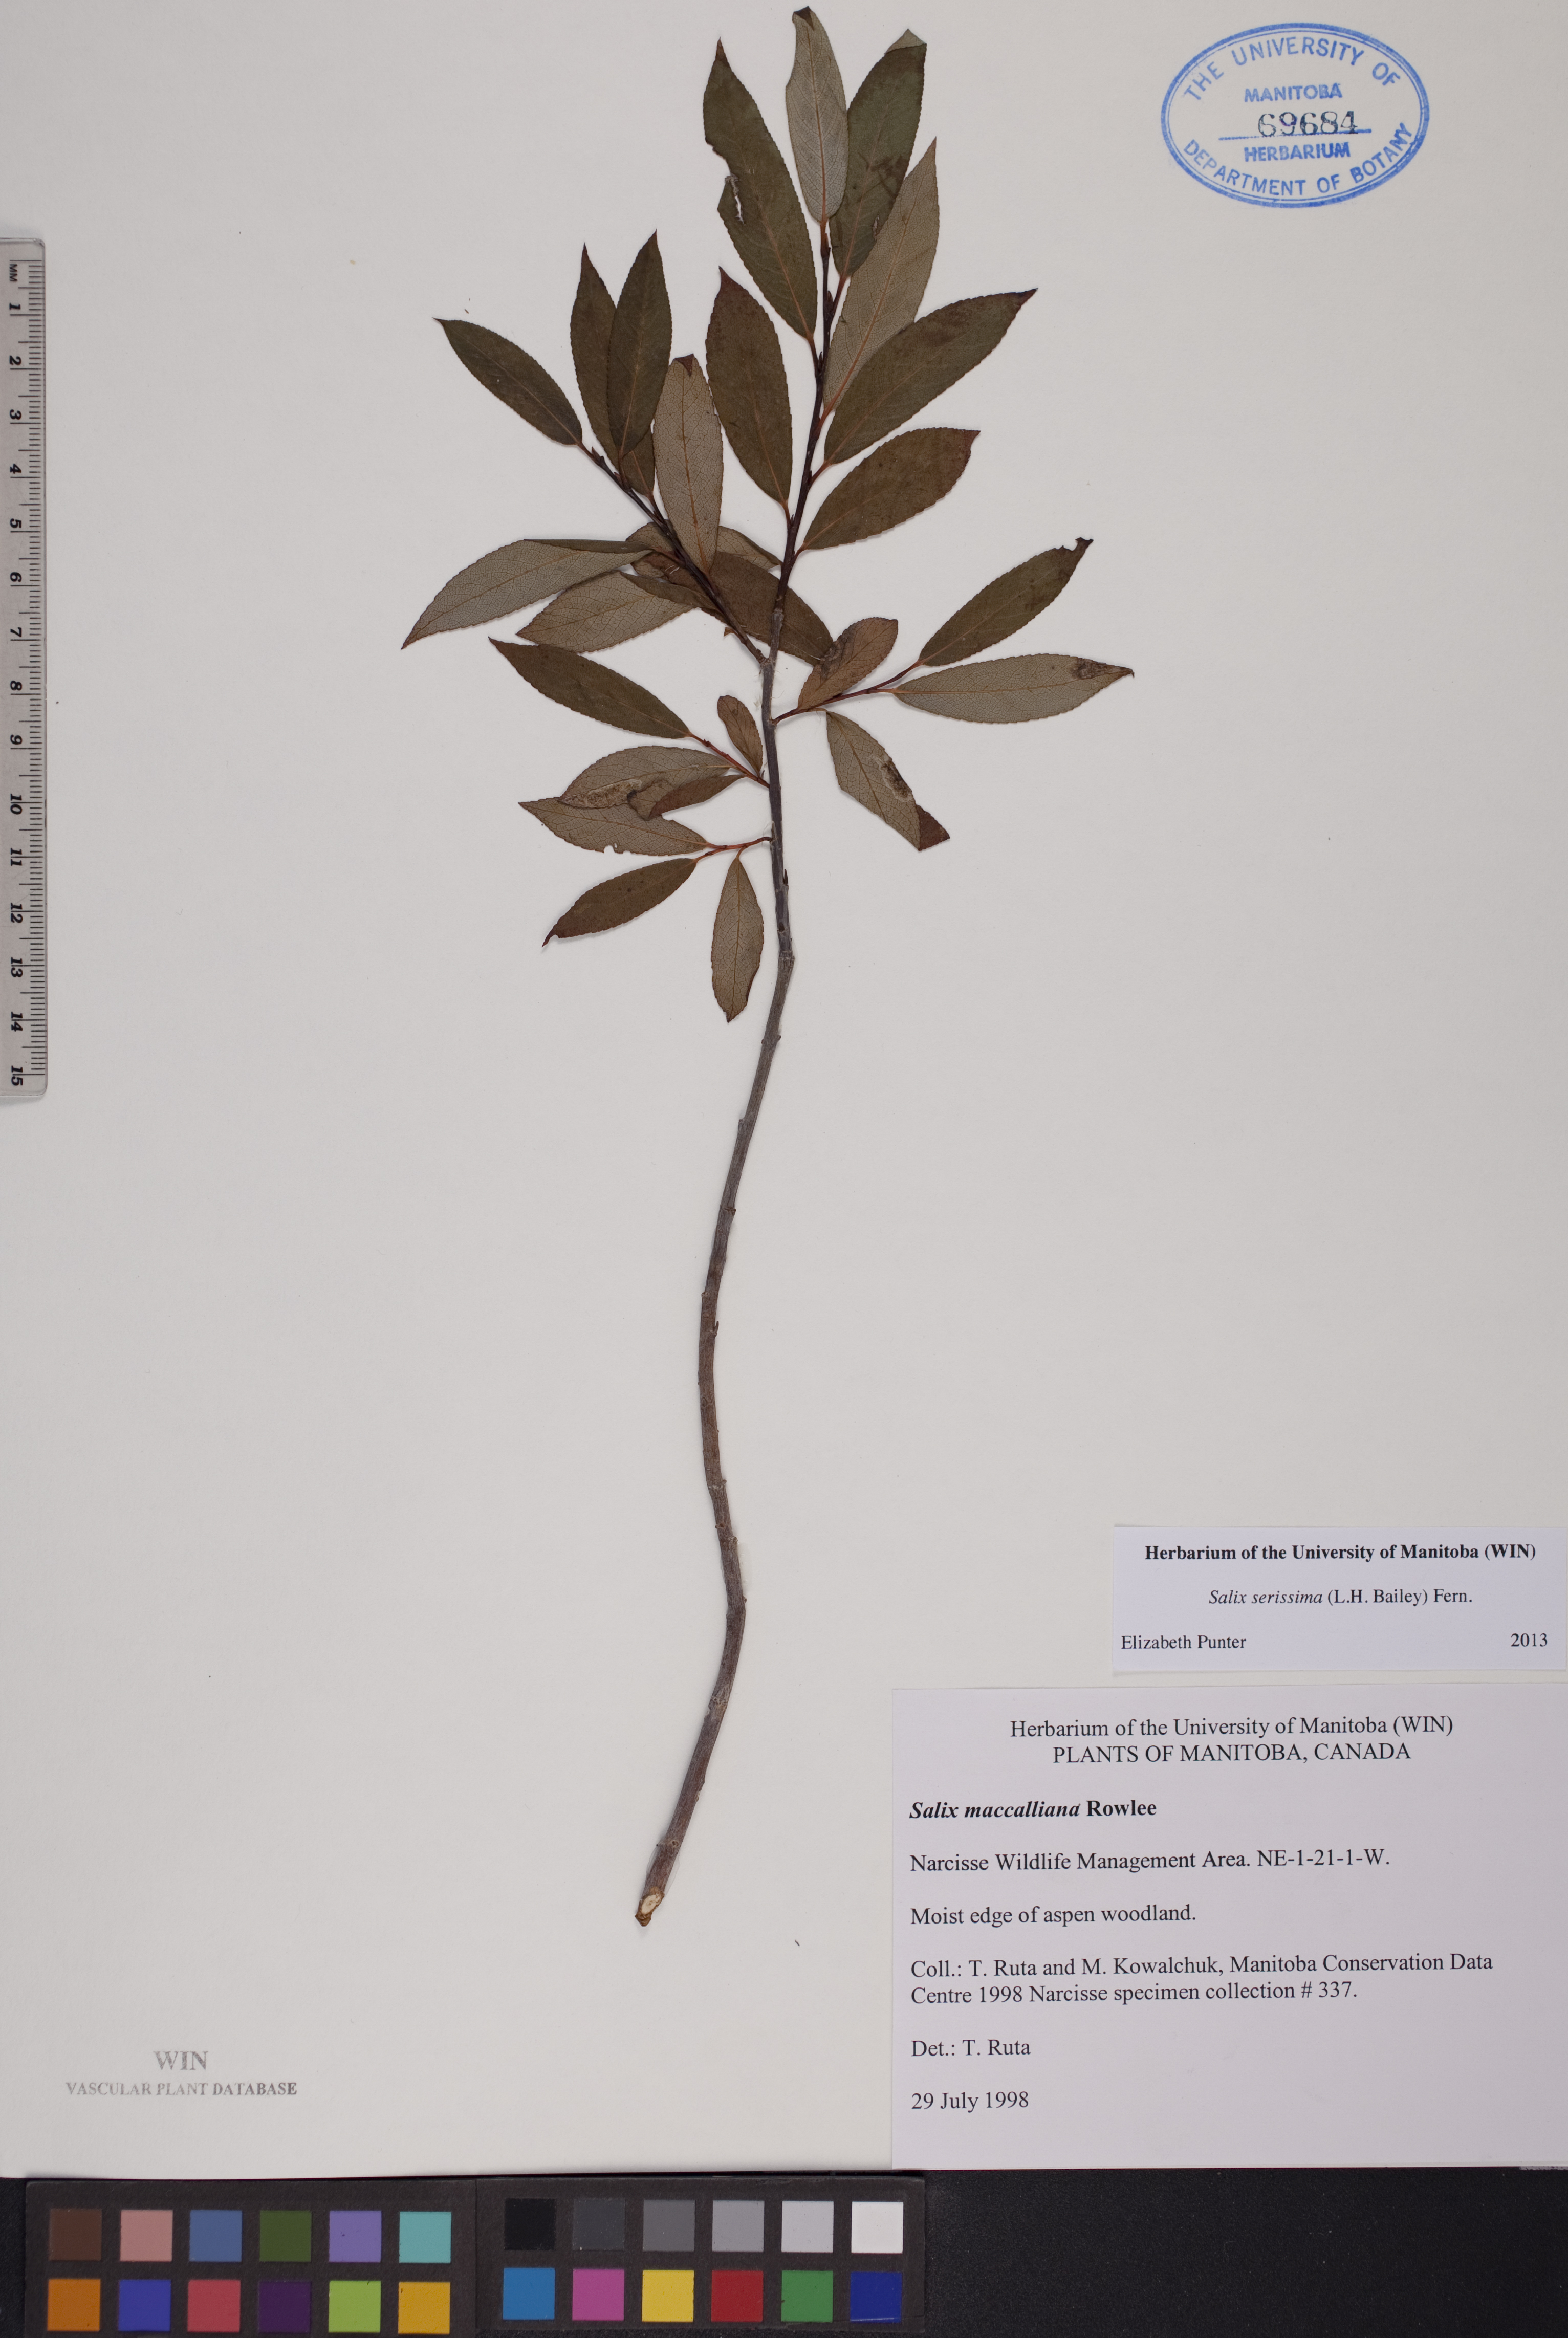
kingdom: Plantae
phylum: Tracheophyta
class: Magnoliopsida
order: Malpighiales
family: Salicaceae
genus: Salix
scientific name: Salix serissima
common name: Autumn willow
